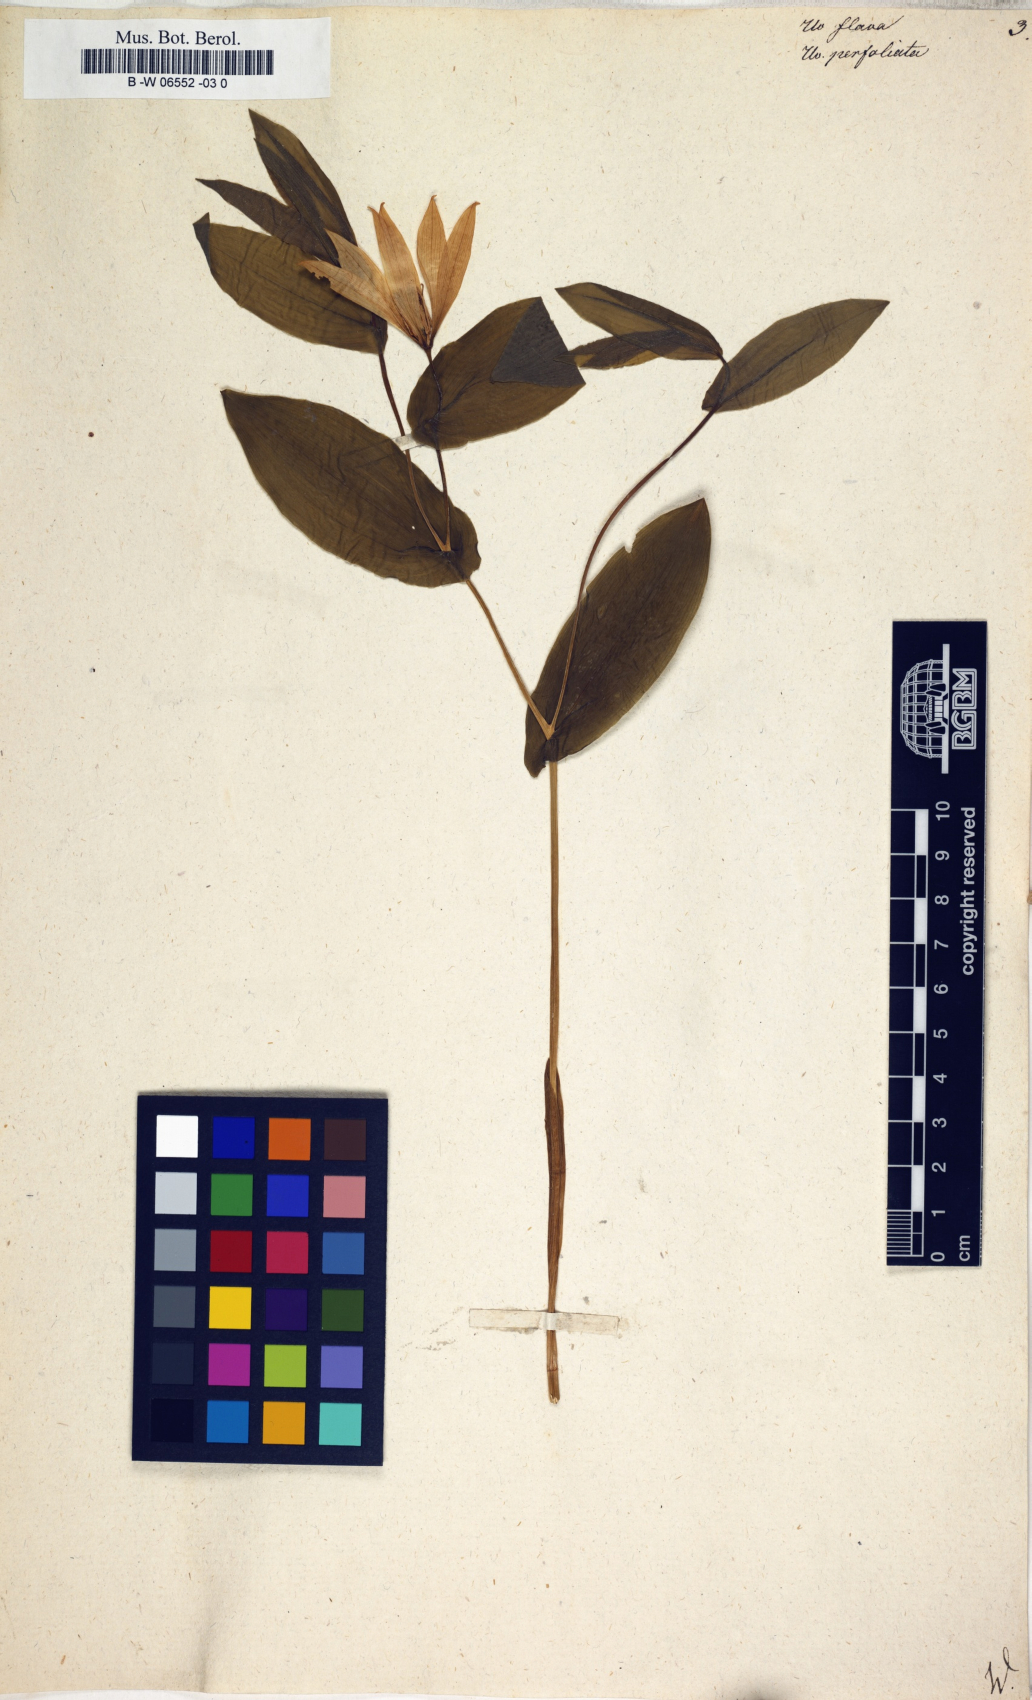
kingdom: Plantae
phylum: Tracheophyta
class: Liliopsida
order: Liliales
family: Colchicaceae
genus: Uvularia
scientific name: Uvularia perfoliata
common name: Perfoliate bellwort
